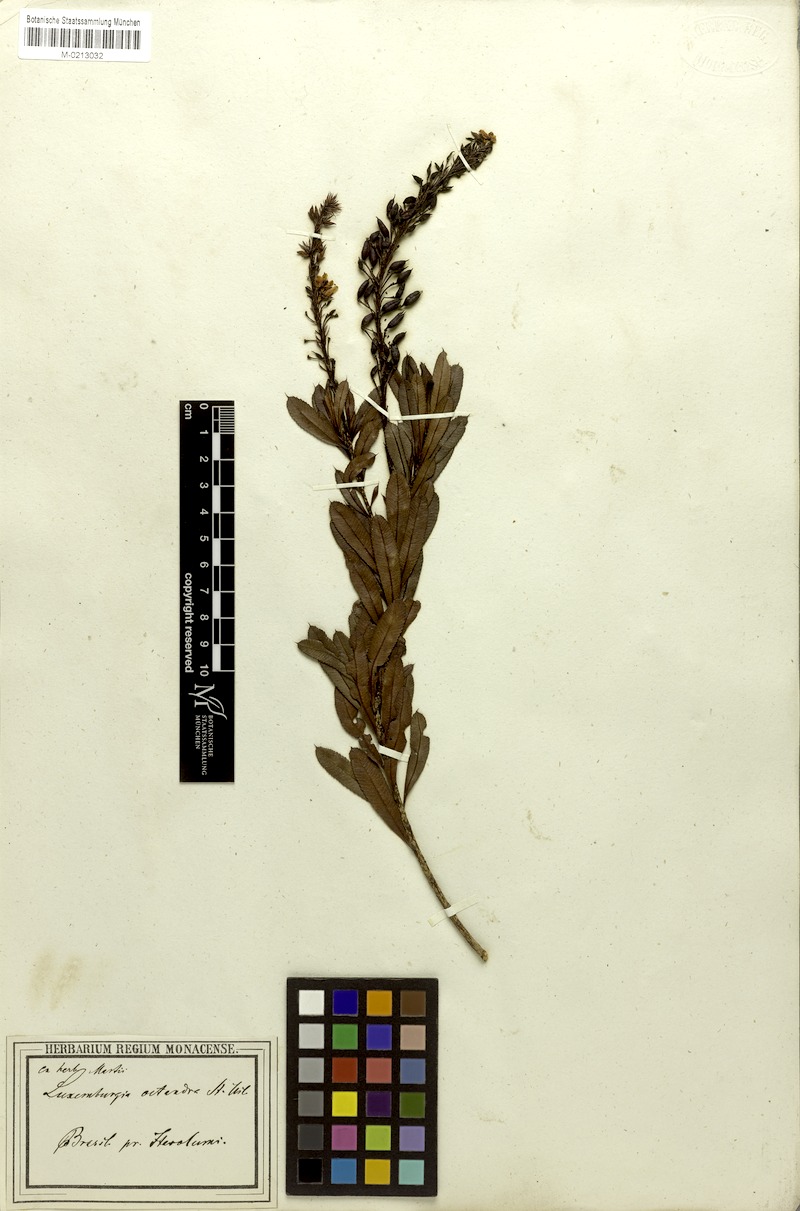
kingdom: Plantae
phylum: Tracheophyta
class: Magnoliopsida
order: Malpighiales
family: Ochnaceae
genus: Luxemburgia
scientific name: Luxemburgia octandra
